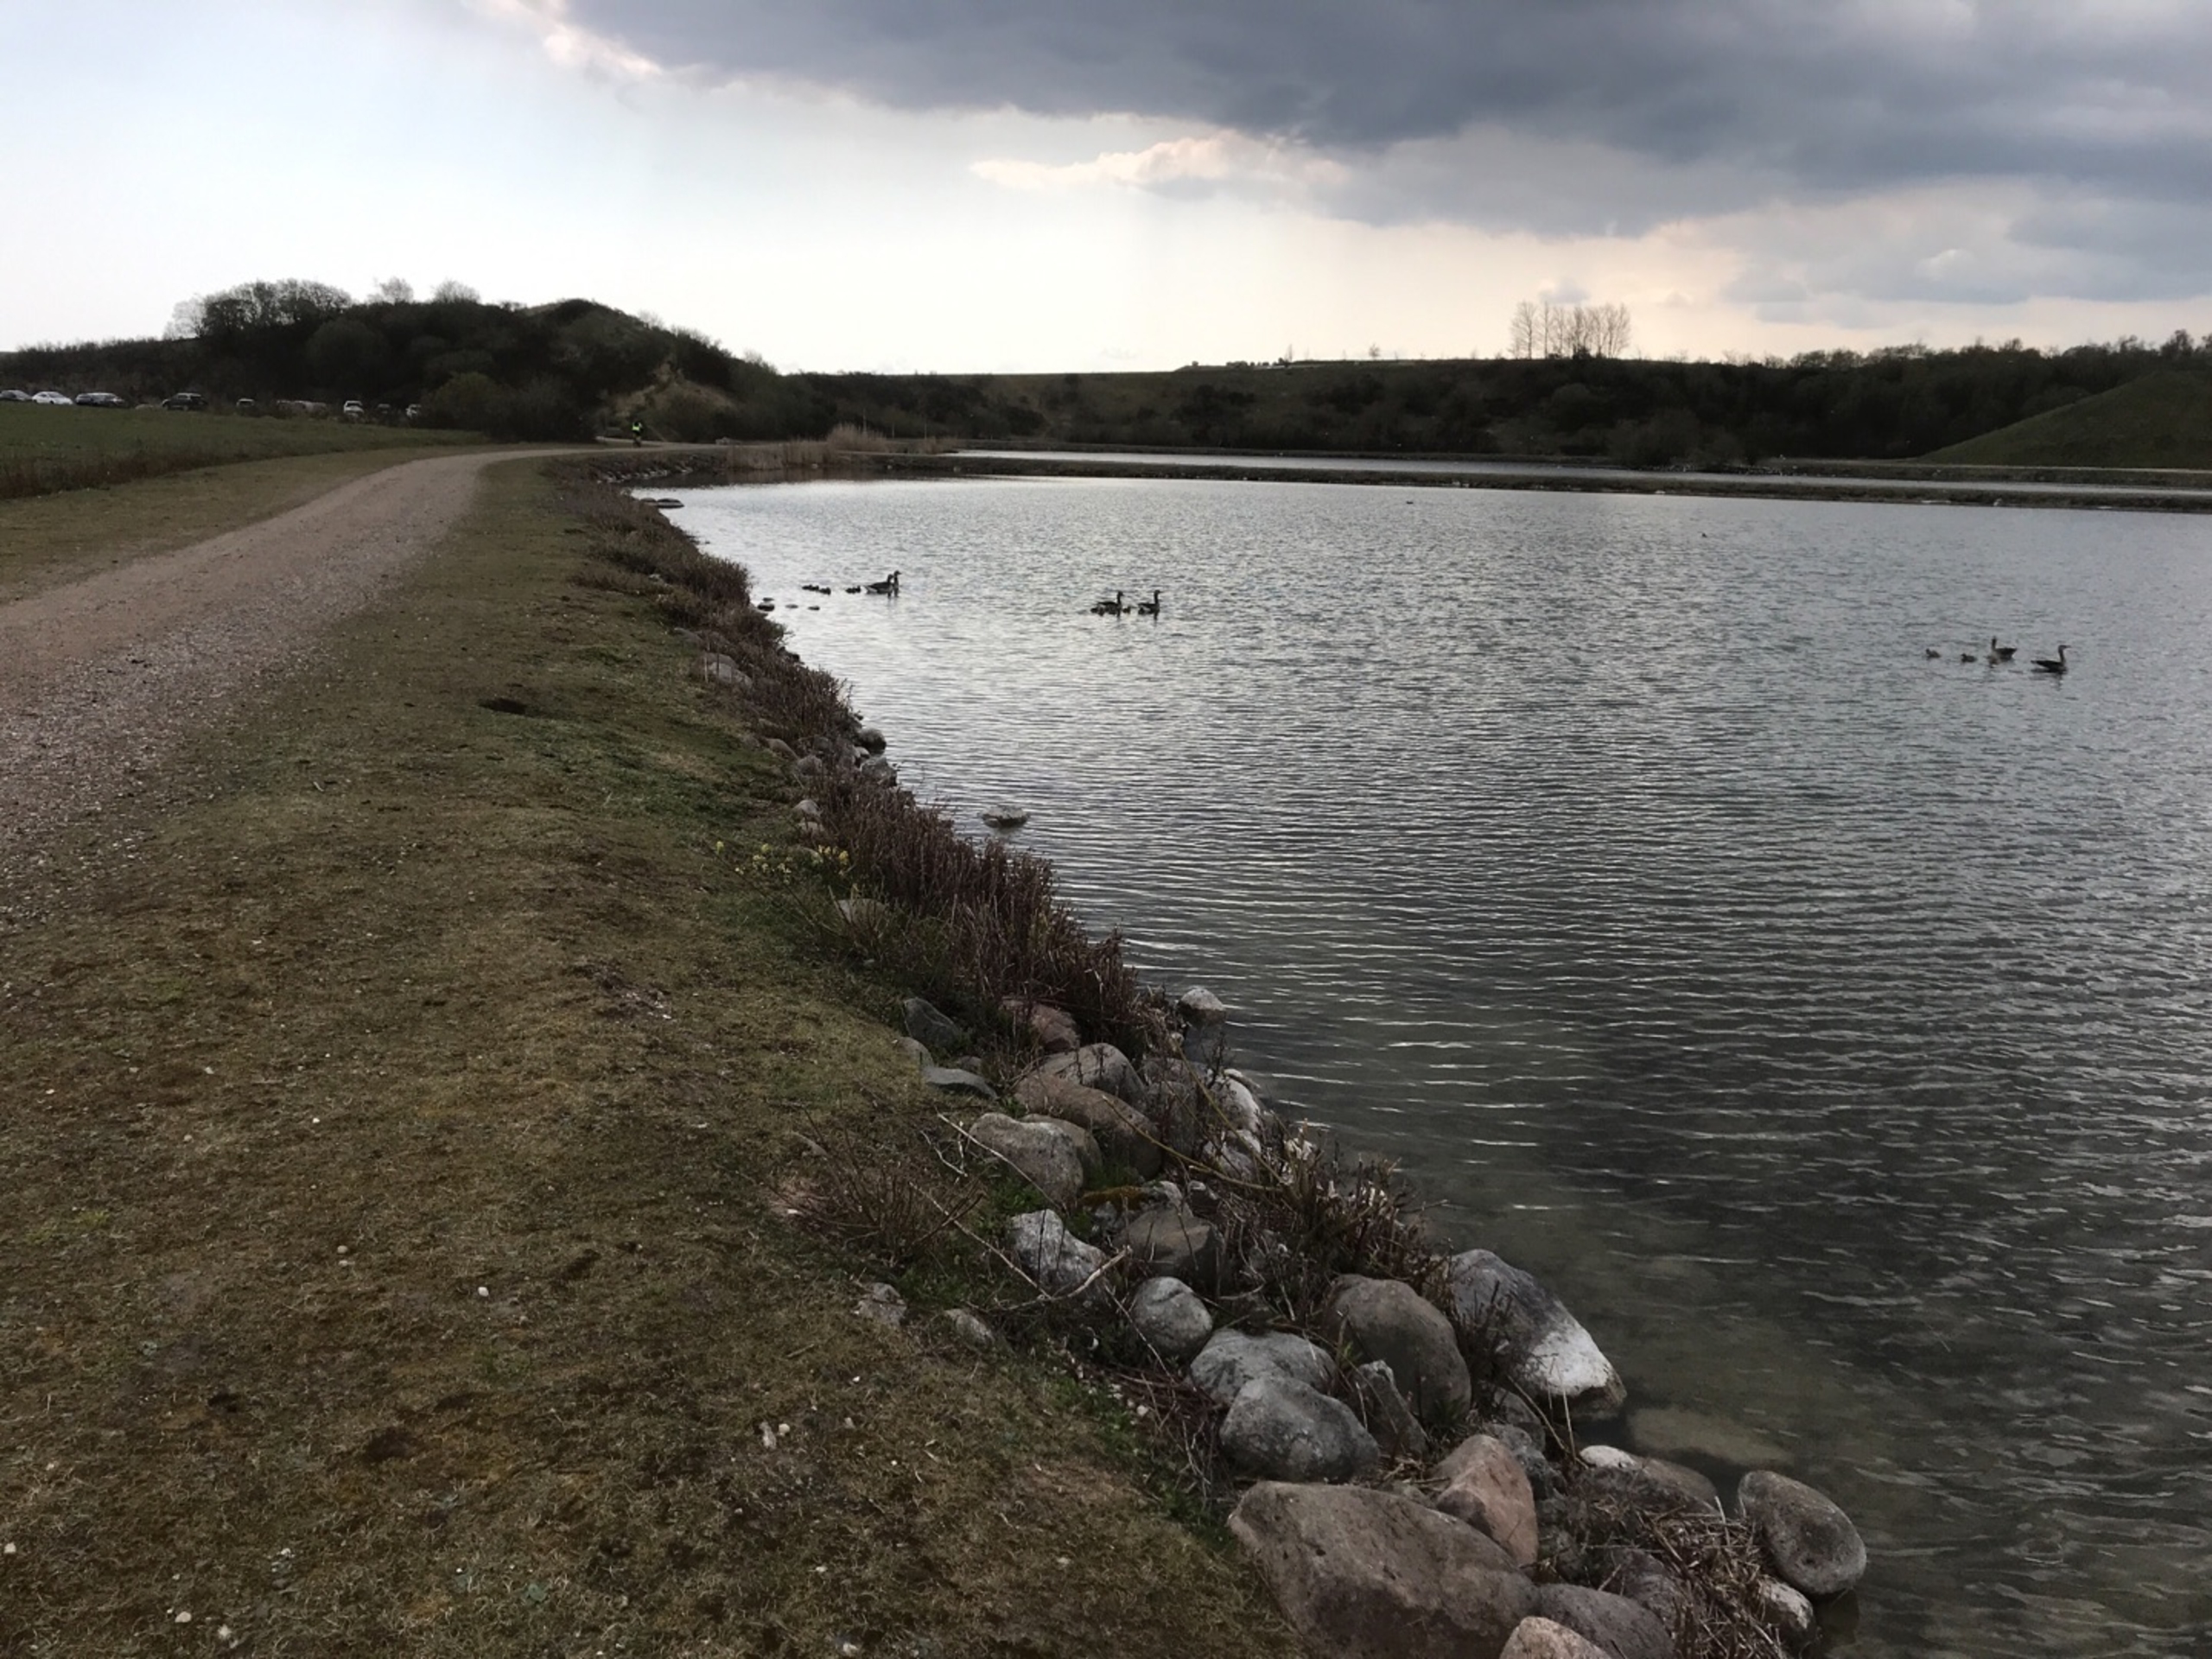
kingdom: Animalia
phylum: Chordata
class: Aves
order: Anseriformes
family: Anatidae
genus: Anser
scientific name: Anser anser
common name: Grågås
